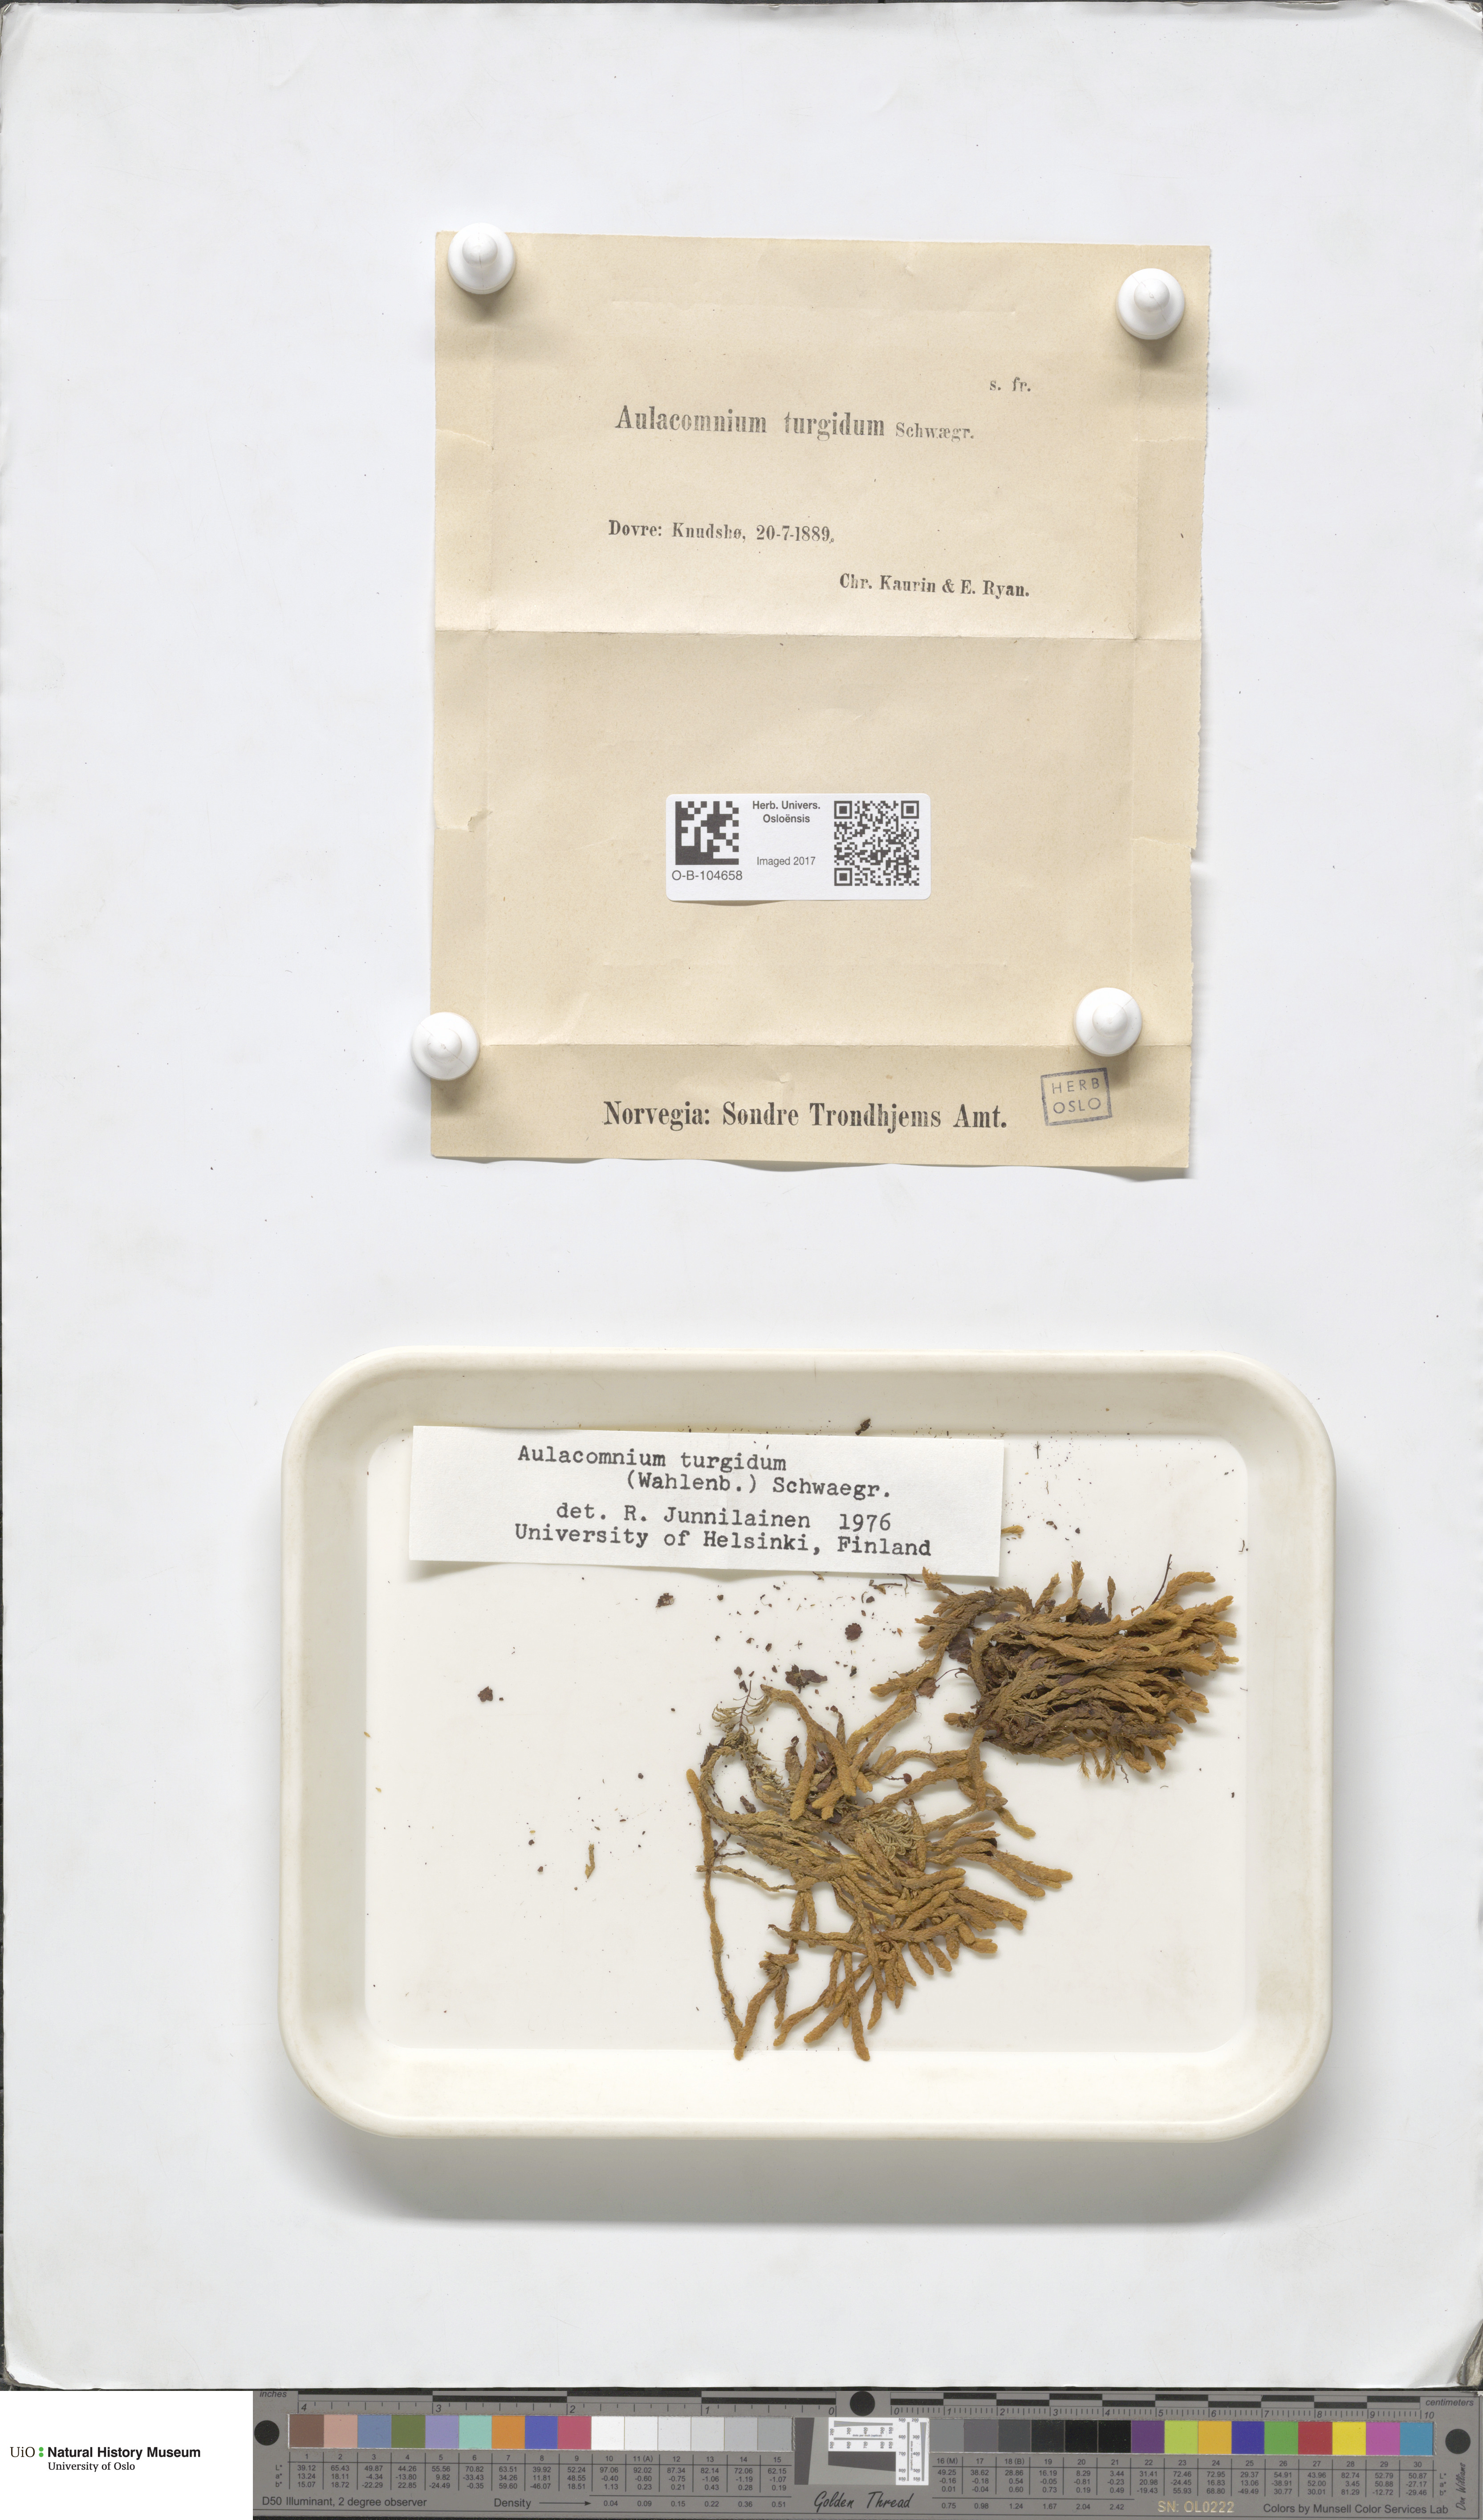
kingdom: Plantae
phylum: Bryophyta
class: Bryopsida
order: Aulacomniales
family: Aulacomniaceae
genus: Aulacomnium
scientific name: Aulacomnium turgidum
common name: Mountain groove moss
